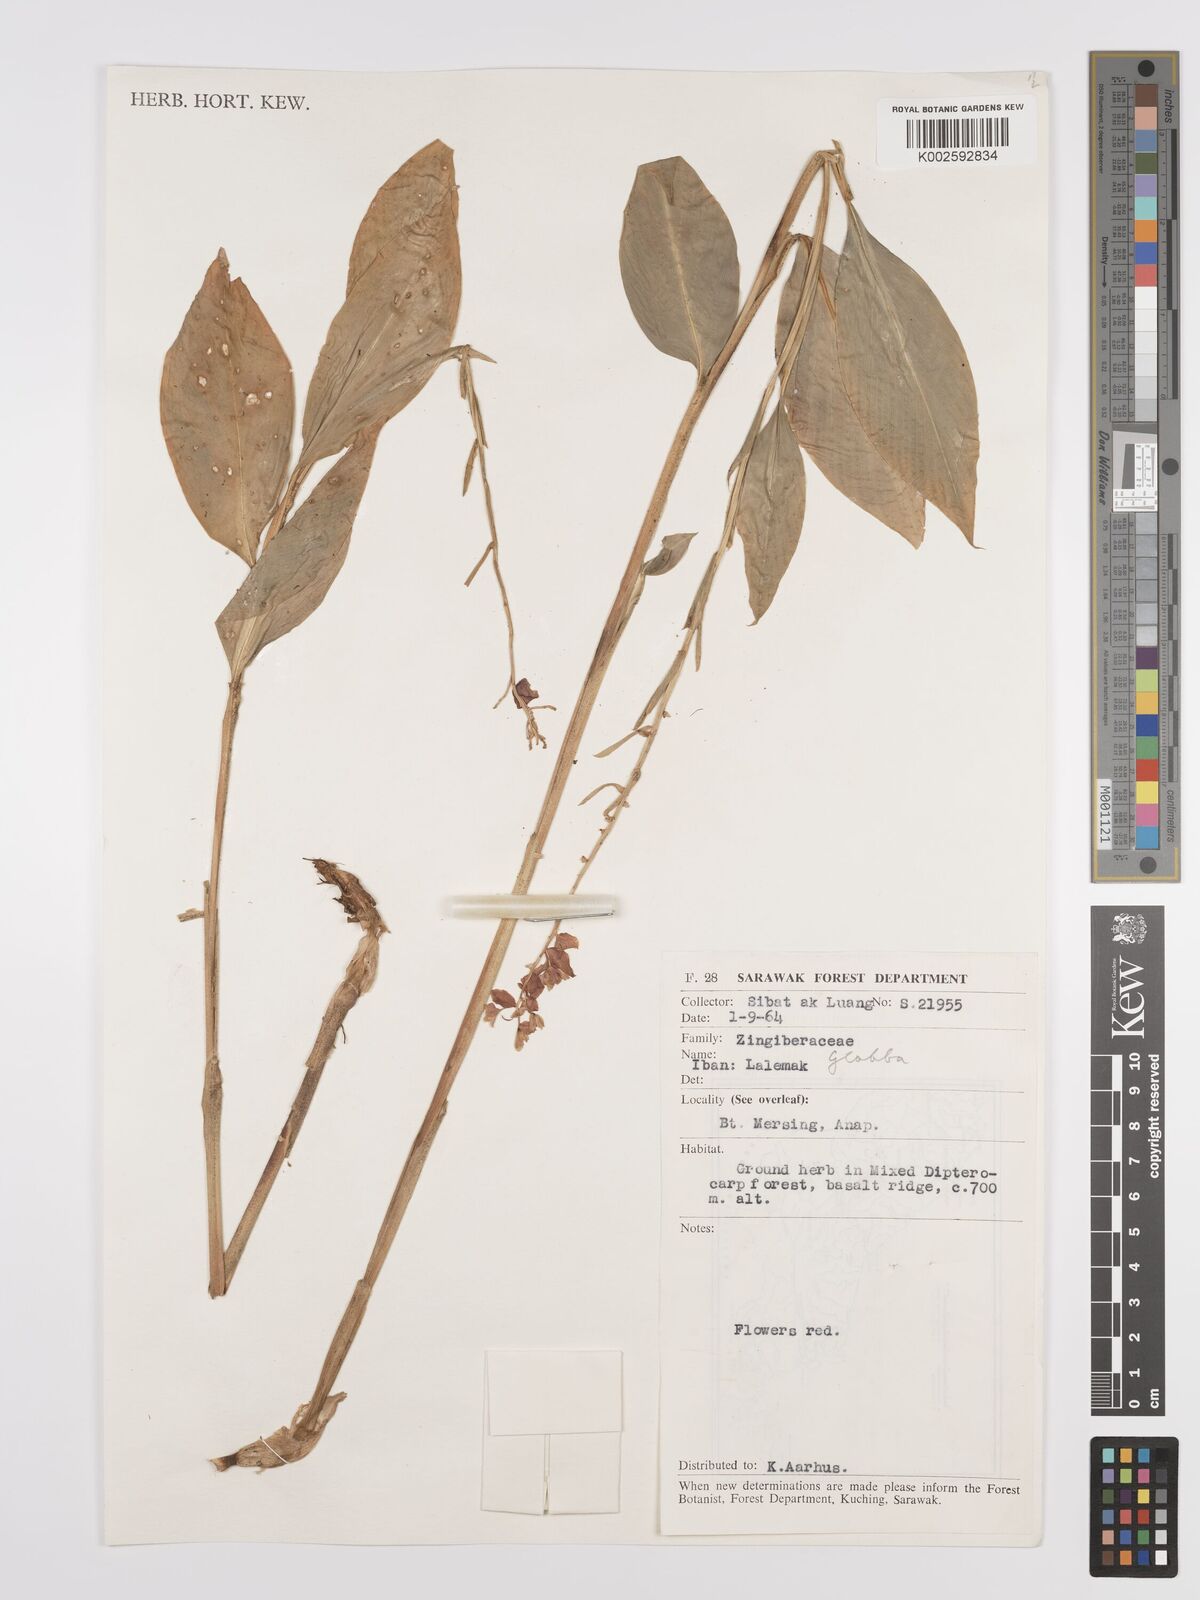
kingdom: Plantae
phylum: Tracheophyta
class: Liliopsida
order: Zingiberales
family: Zingiberaceae
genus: Globba
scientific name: Globba atrosanguinea
